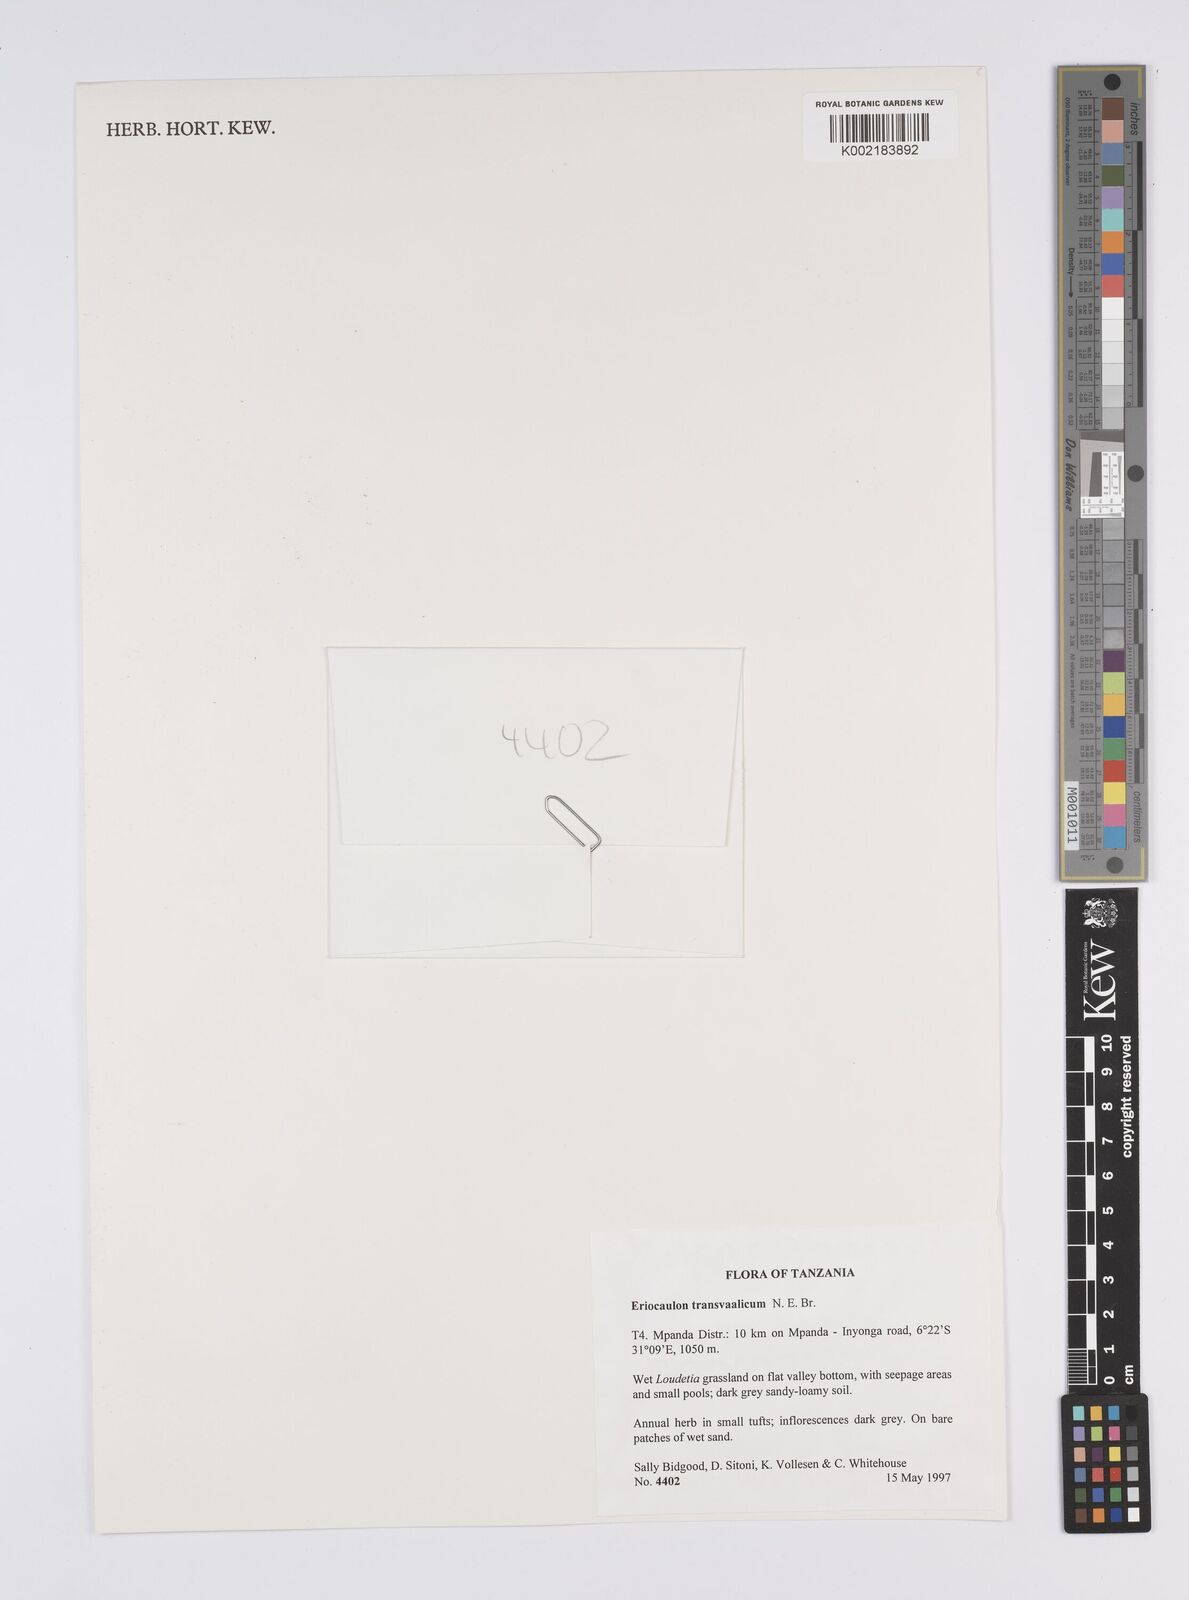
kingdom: Plantae
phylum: Tracheophyta
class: Liliopsida
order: Poales
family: Eriocaulaceae
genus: Eriocaulon
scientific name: Eriocaulon transvaalicum
